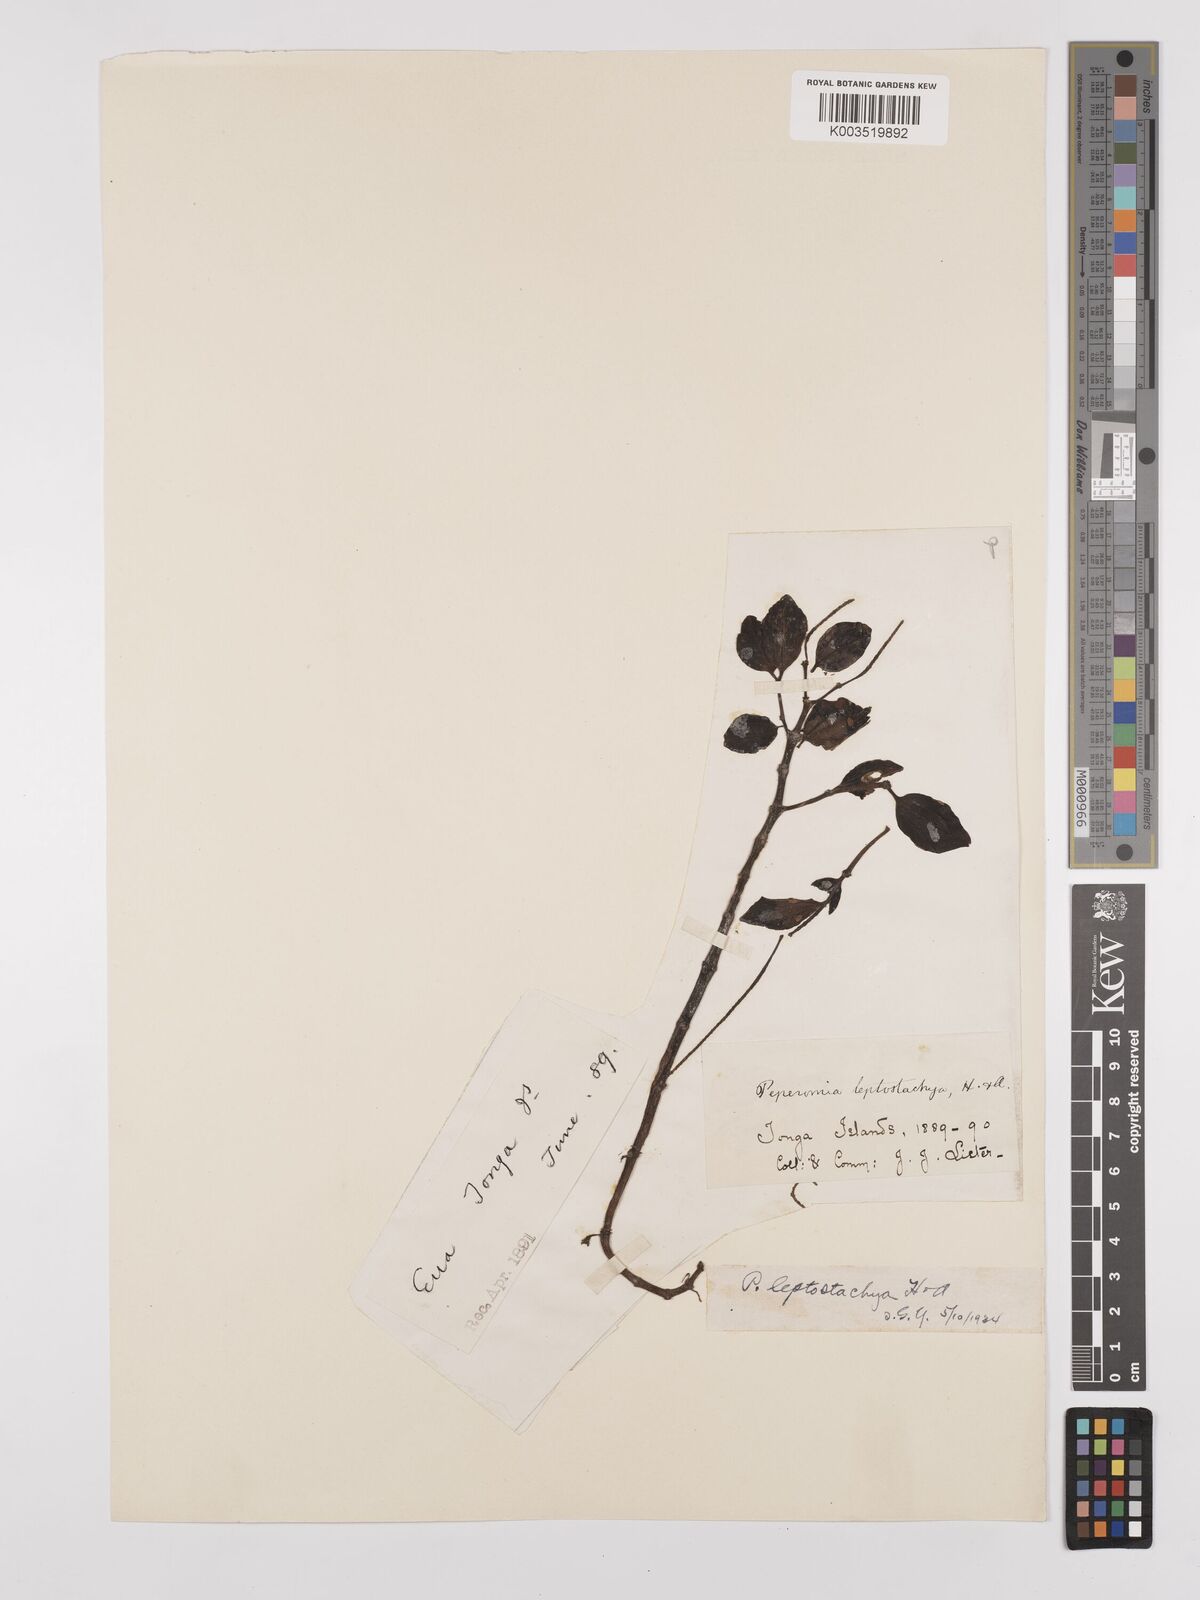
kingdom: Plantae
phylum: Tracheophyta
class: Magnoliopsida
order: Piperales
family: Piperaceae
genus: Peperomia
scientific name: Peperomia leptostachya
